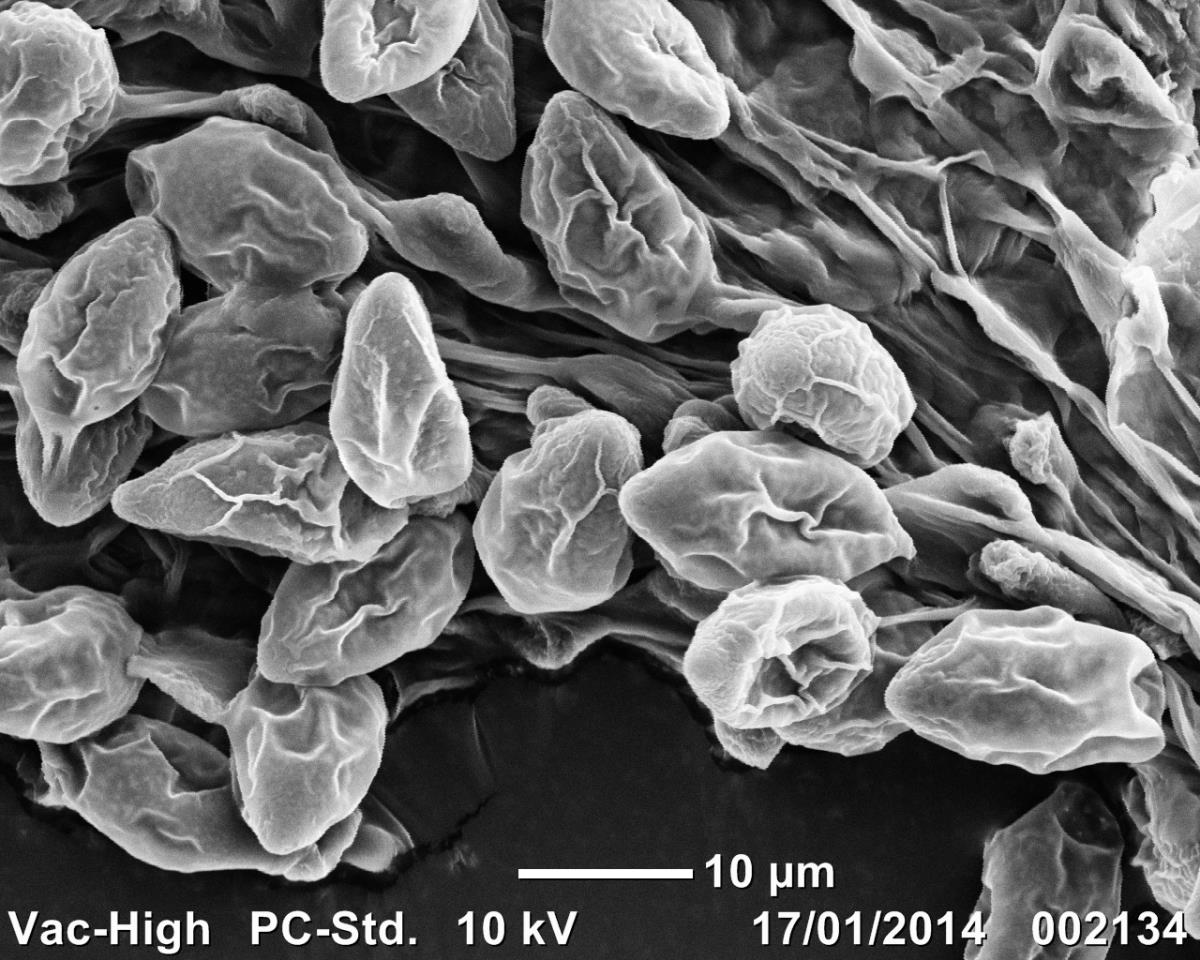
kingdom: Fungi
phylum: Basidiomycota
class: Agaricomycetes
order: Agaricales
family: Bolbitiaceae
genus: Descolea
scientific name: Descolea albella
